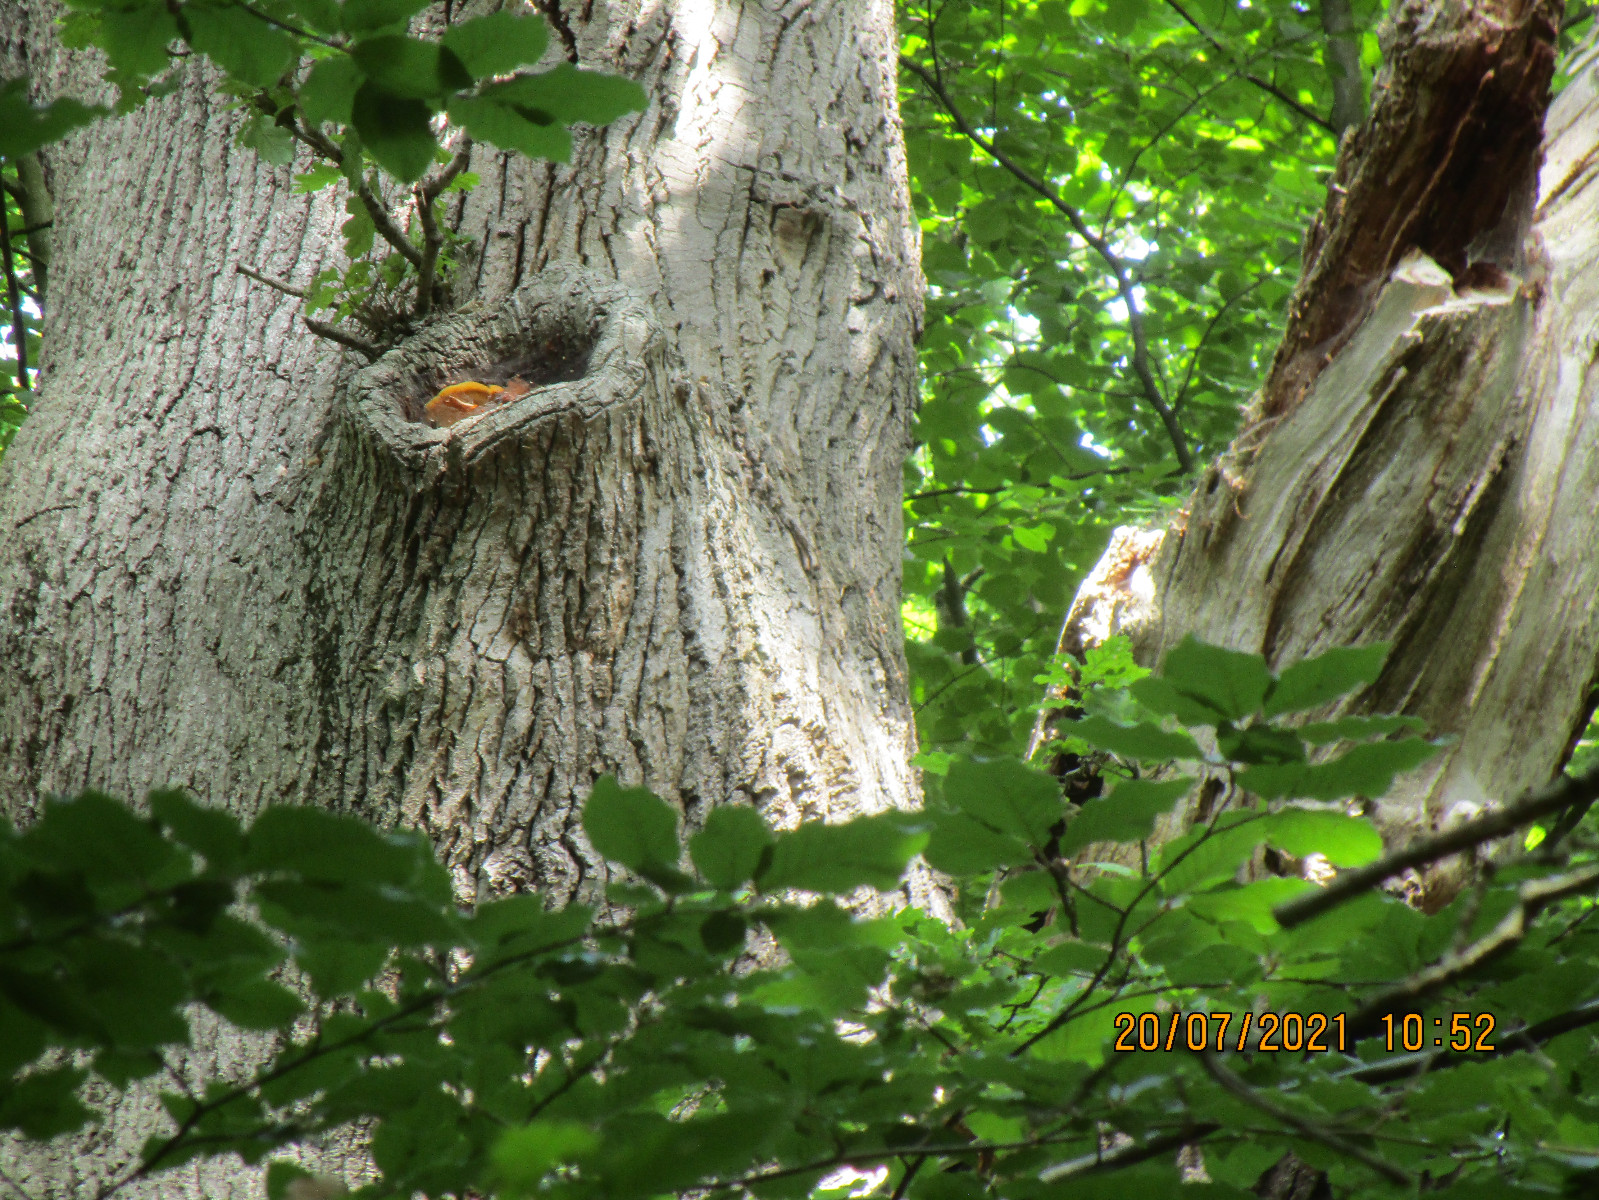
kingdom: Fungi
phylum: Basidiomycota
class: Agaricomycetes
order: Polyporales
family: Phanerochaetaceae
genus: Hapalopilus
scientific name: Hapalopilus croceus
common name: safrangul pragtporesvamp
